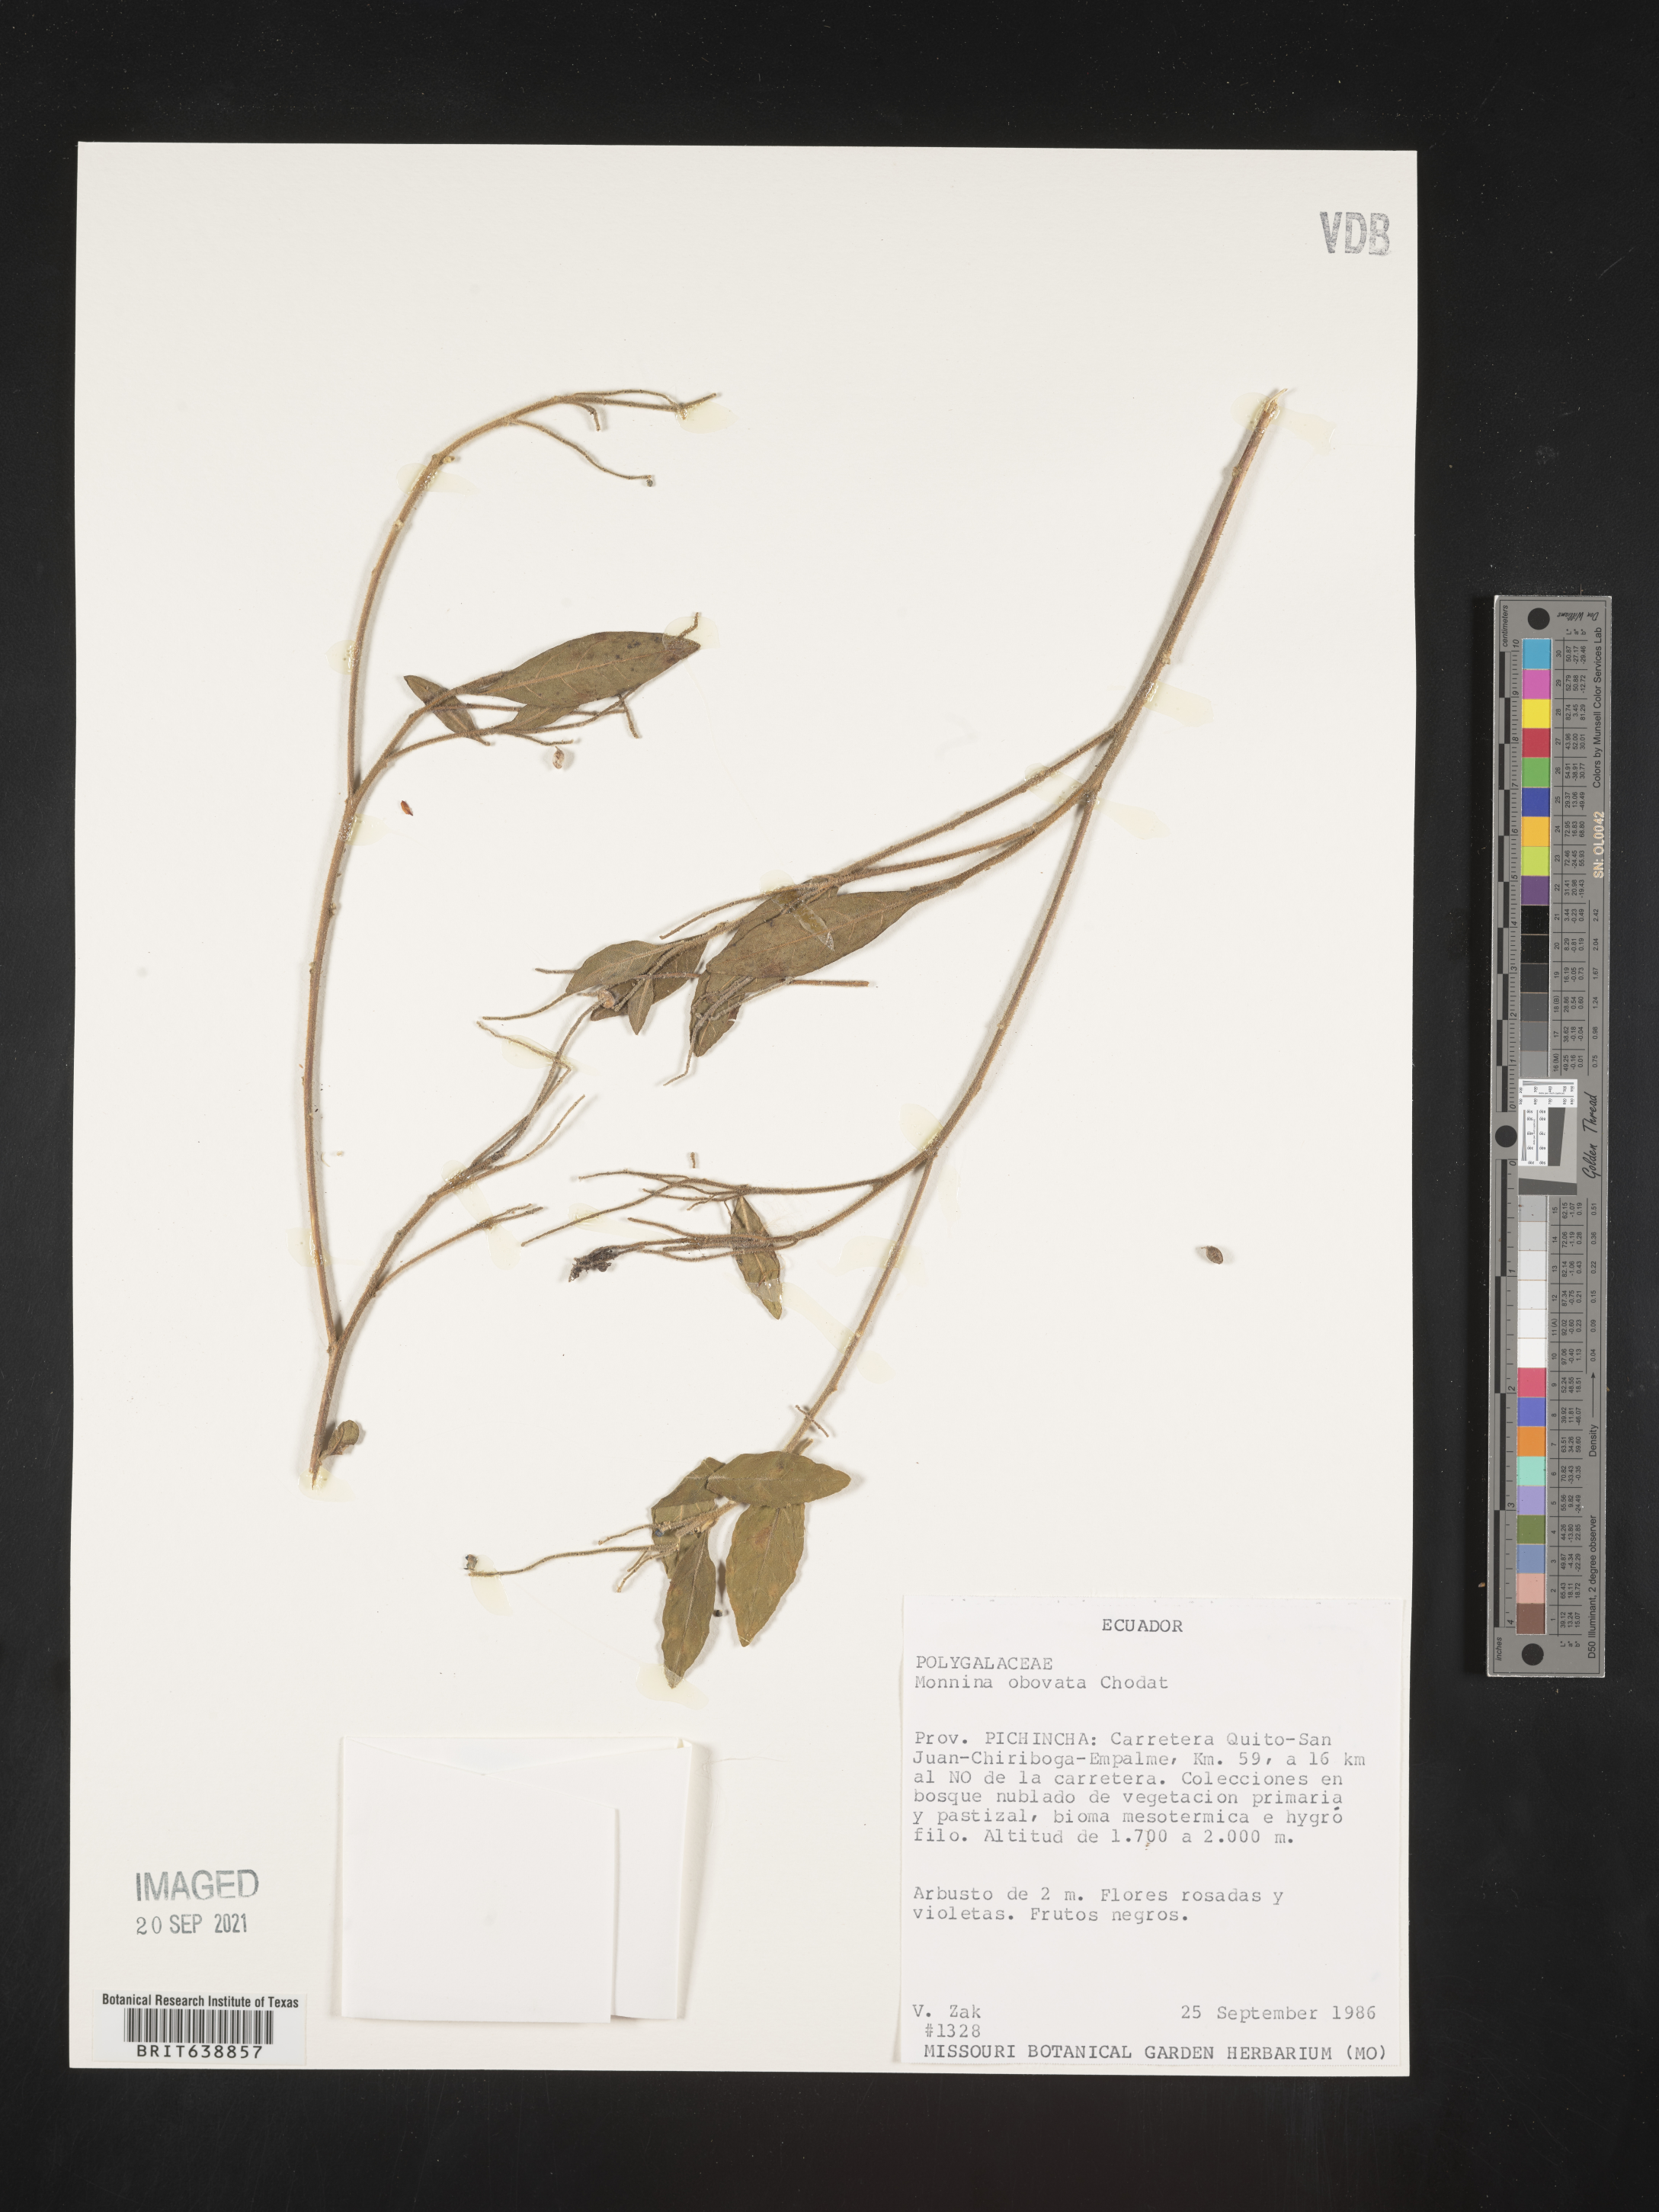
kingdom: Plantae
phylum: Tracheophyta
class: Magnoliopsida
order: Fabales
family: Polygalaceae
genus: Monnina
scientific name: Monnina
